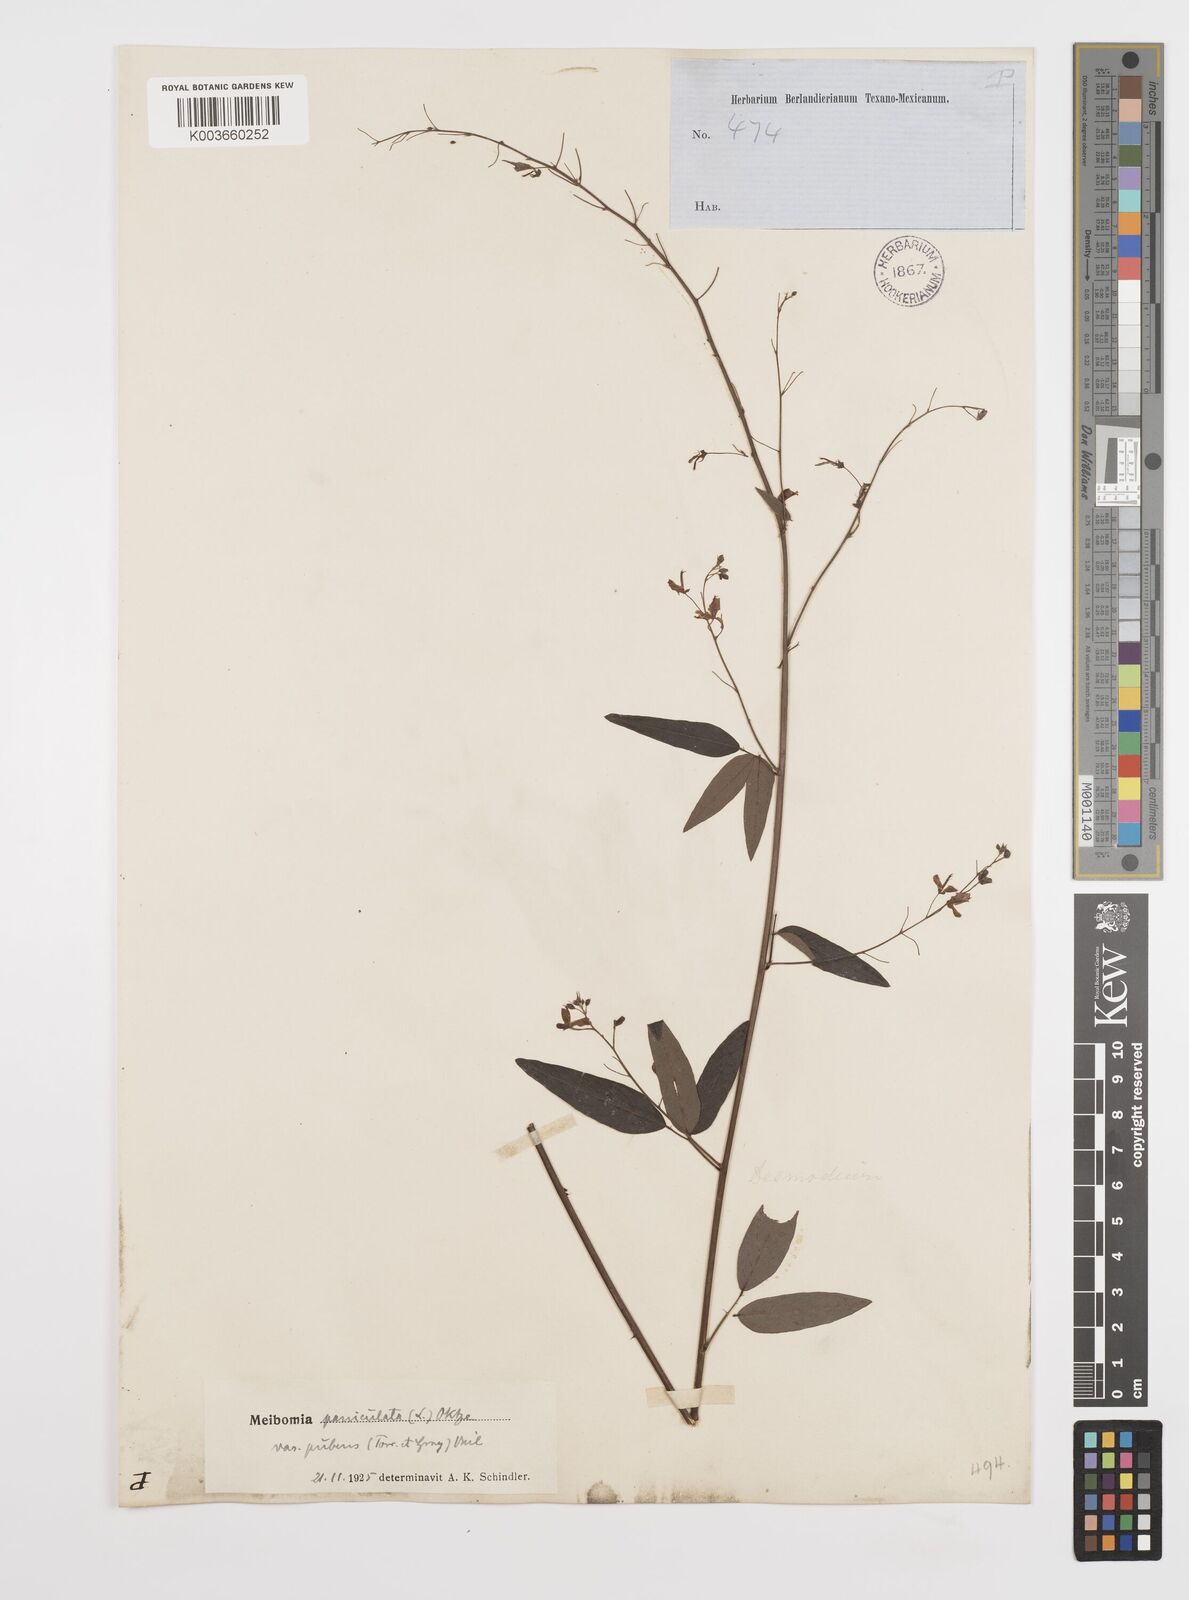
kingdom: Plantae
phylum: Tracheophyta
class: Magnoliopsida
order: Fabales
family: Fabaceae
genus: Desmodium
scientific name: Desmodium paniculatum
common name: Panicled tick-clover
